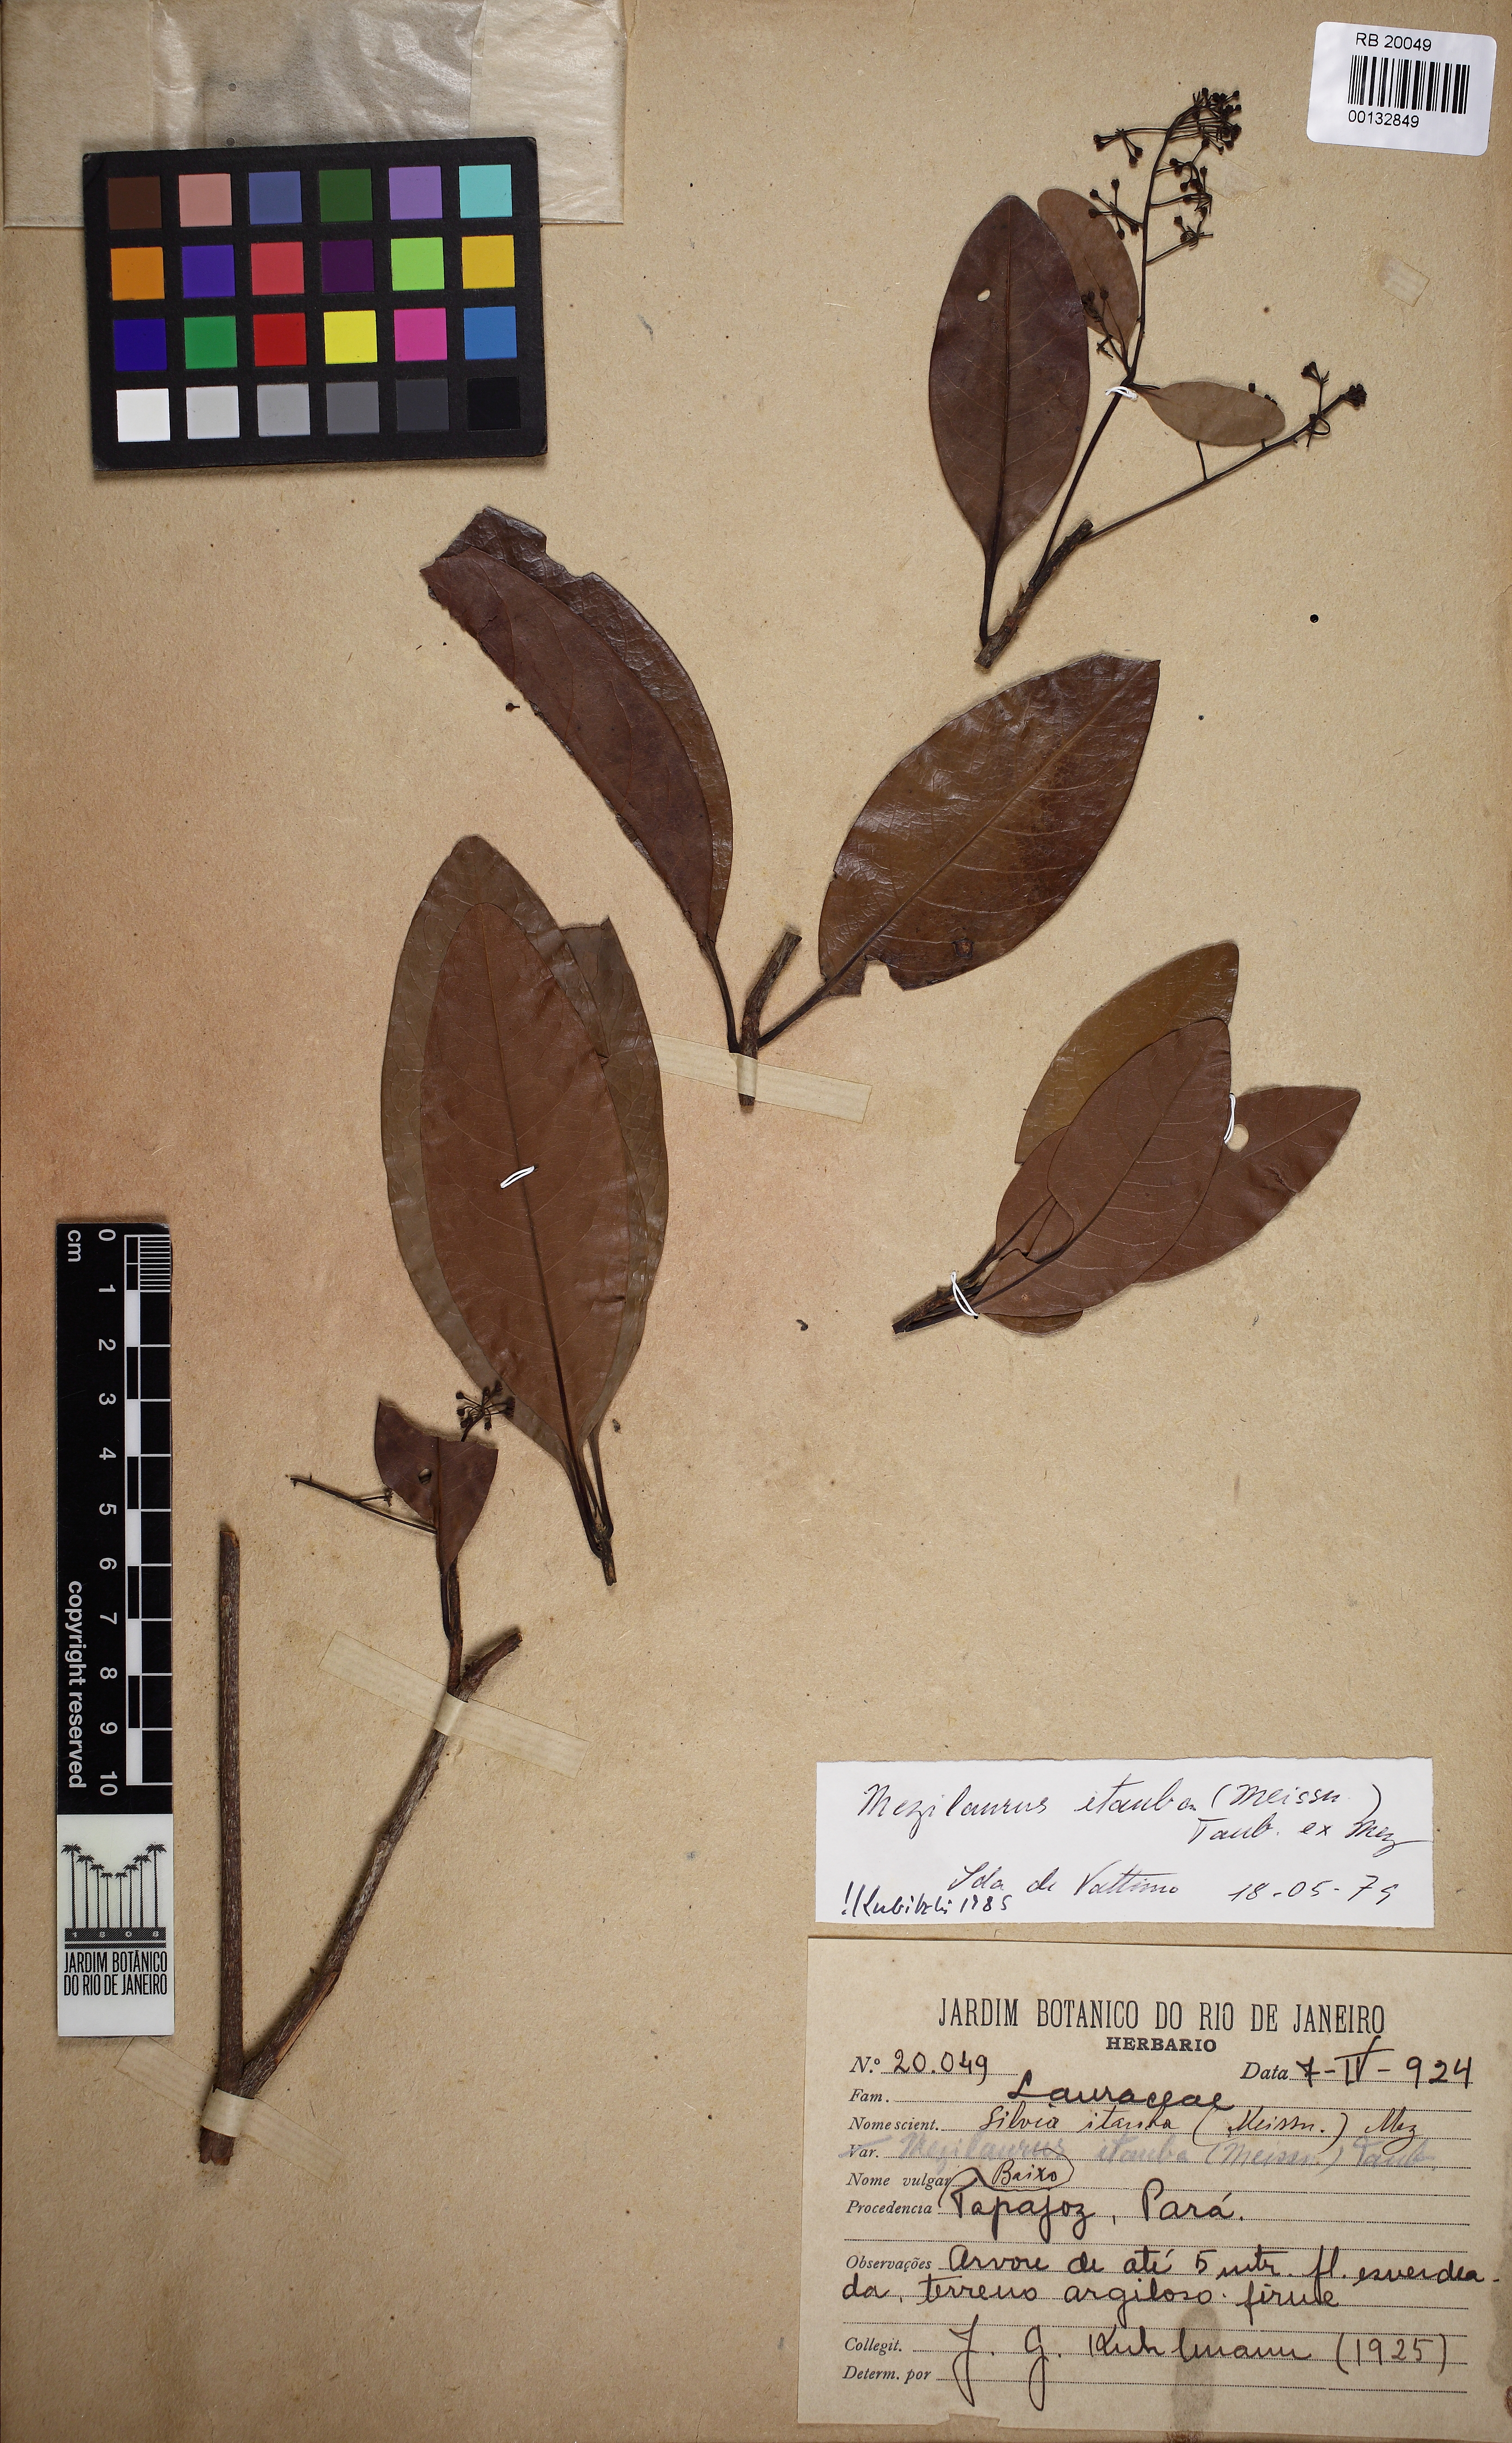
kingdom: Plantae
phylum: Tracheophyta
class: Magnoliopsida
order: Laurales
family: Lauraceae
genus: Mezilaurus
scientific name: Mezilaurus ita-uba
